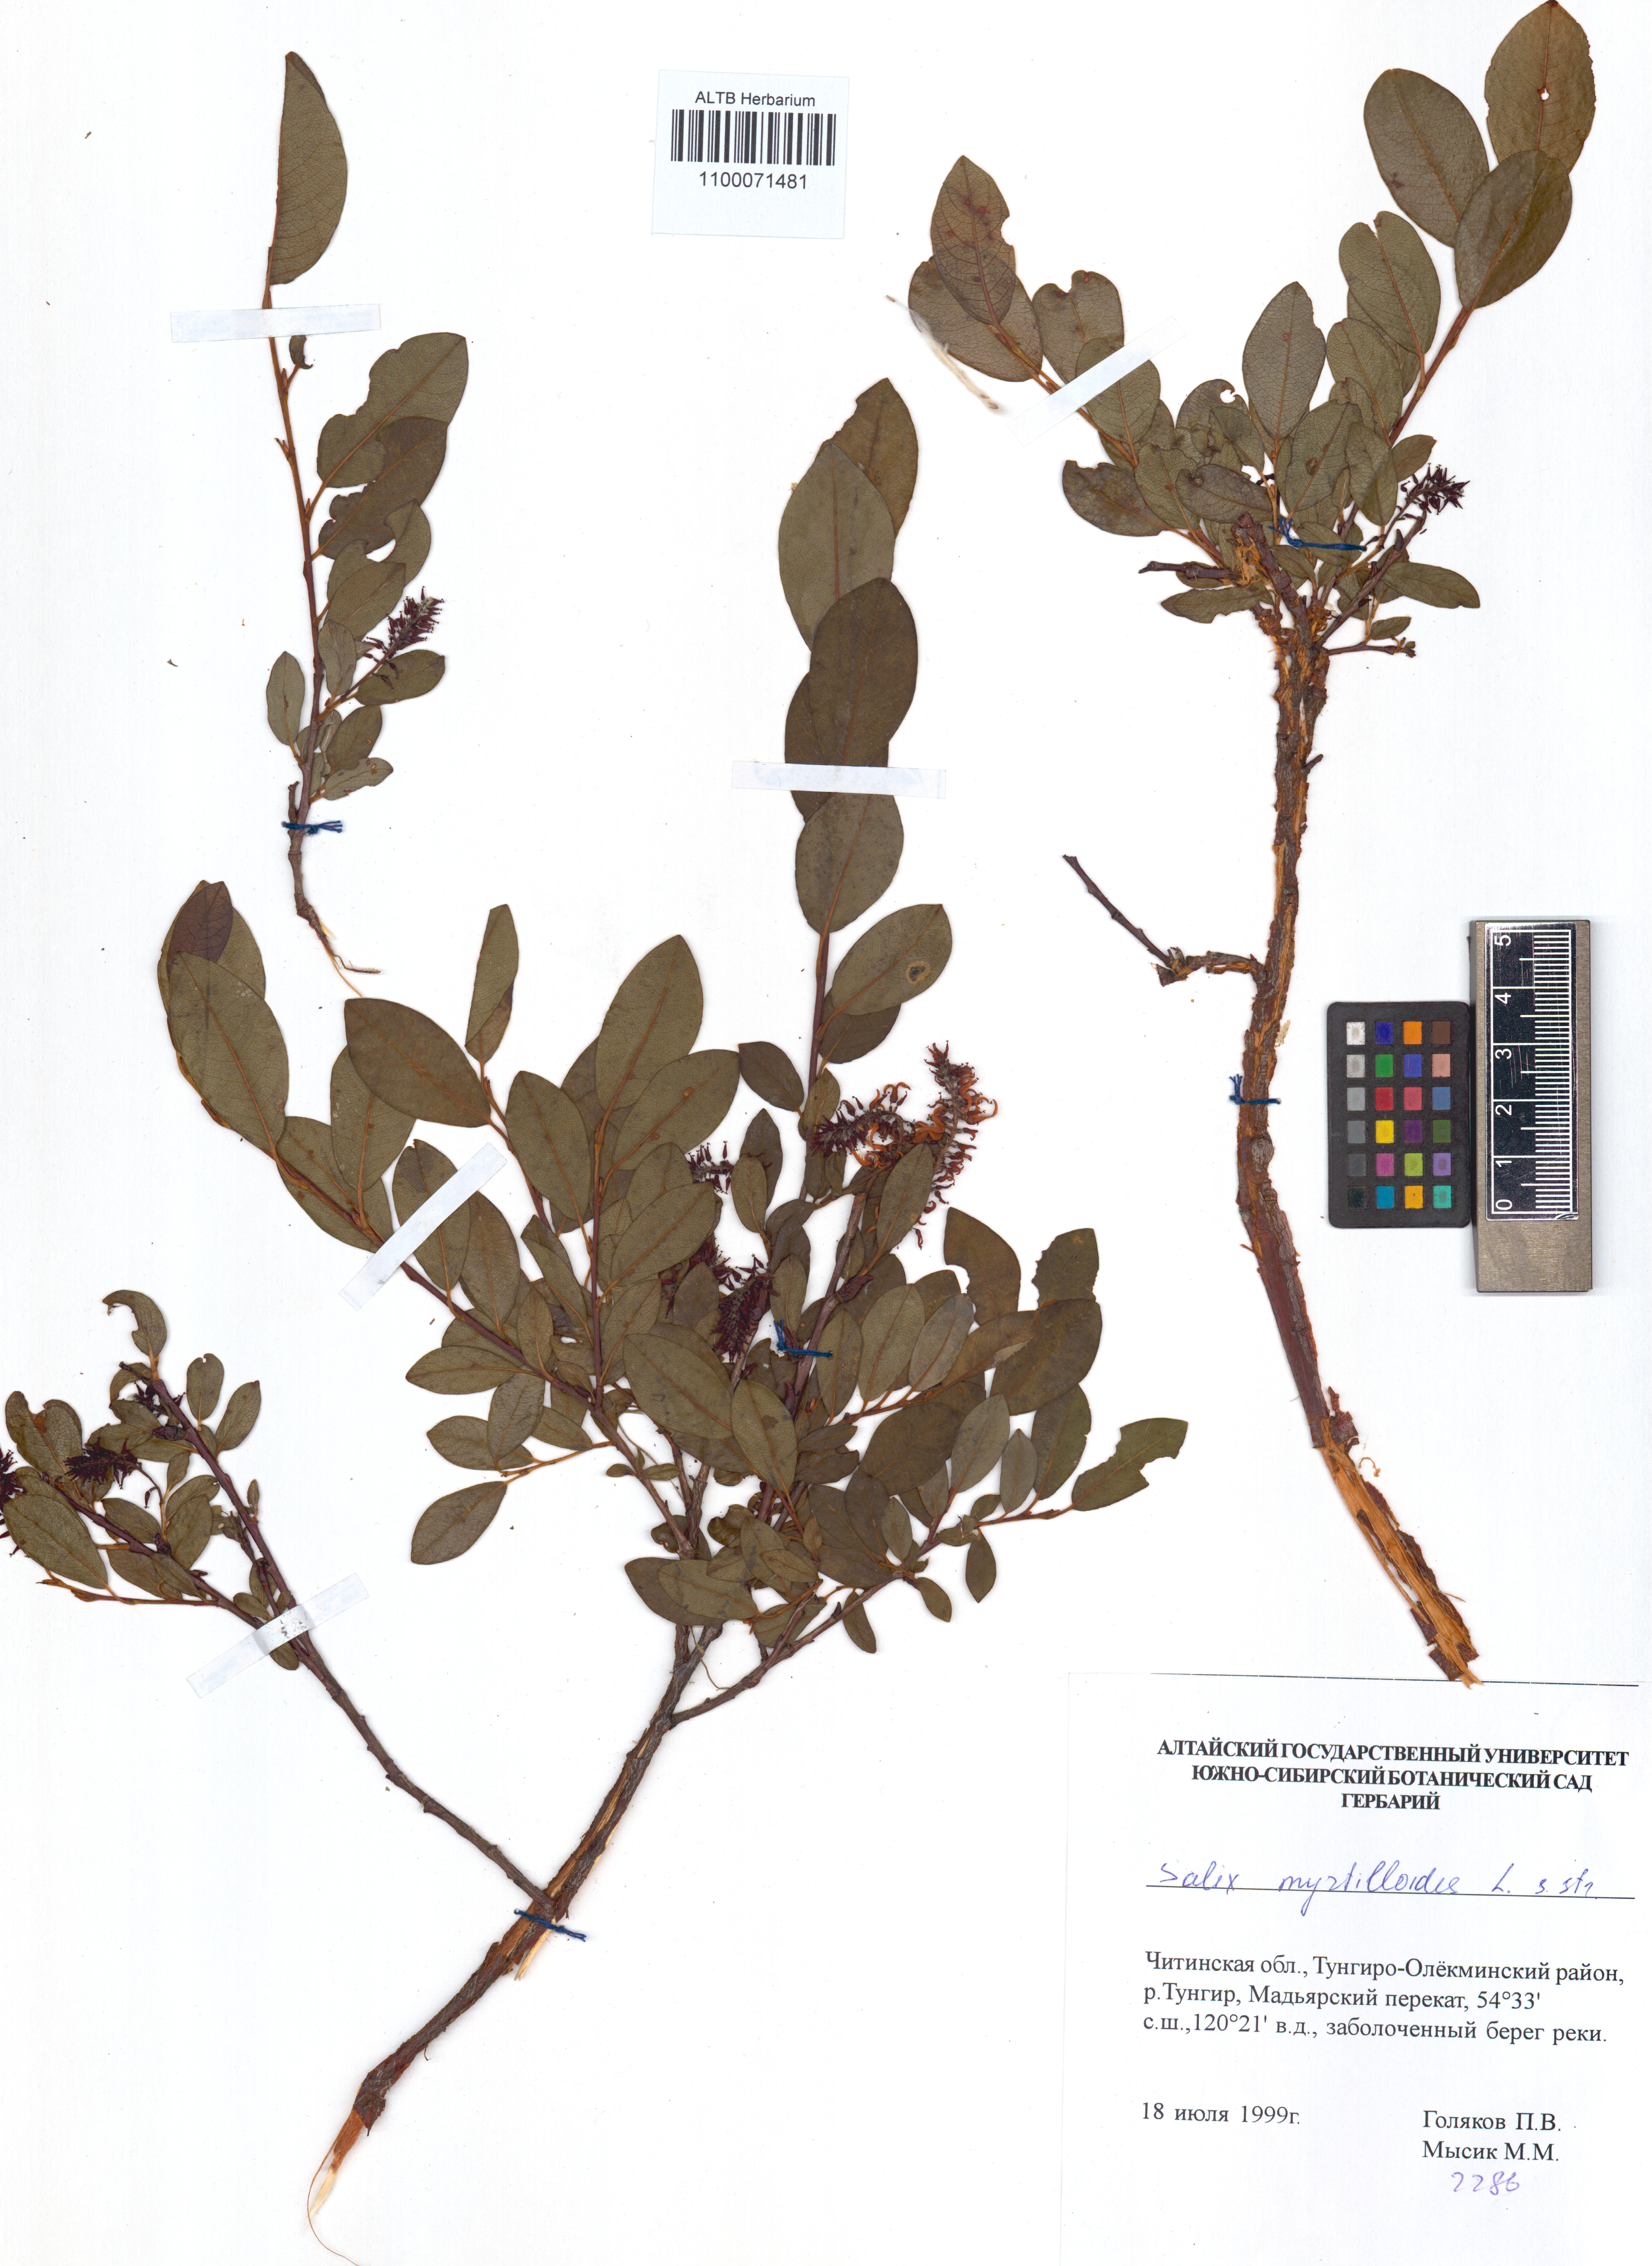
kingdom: Plantae
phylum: Tracheophyta
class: Magnoliopsida
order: Malpighiales
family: Salicaceae
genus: Salix
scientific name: Salix myrtilloides
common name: Myrtle-leaved willow
